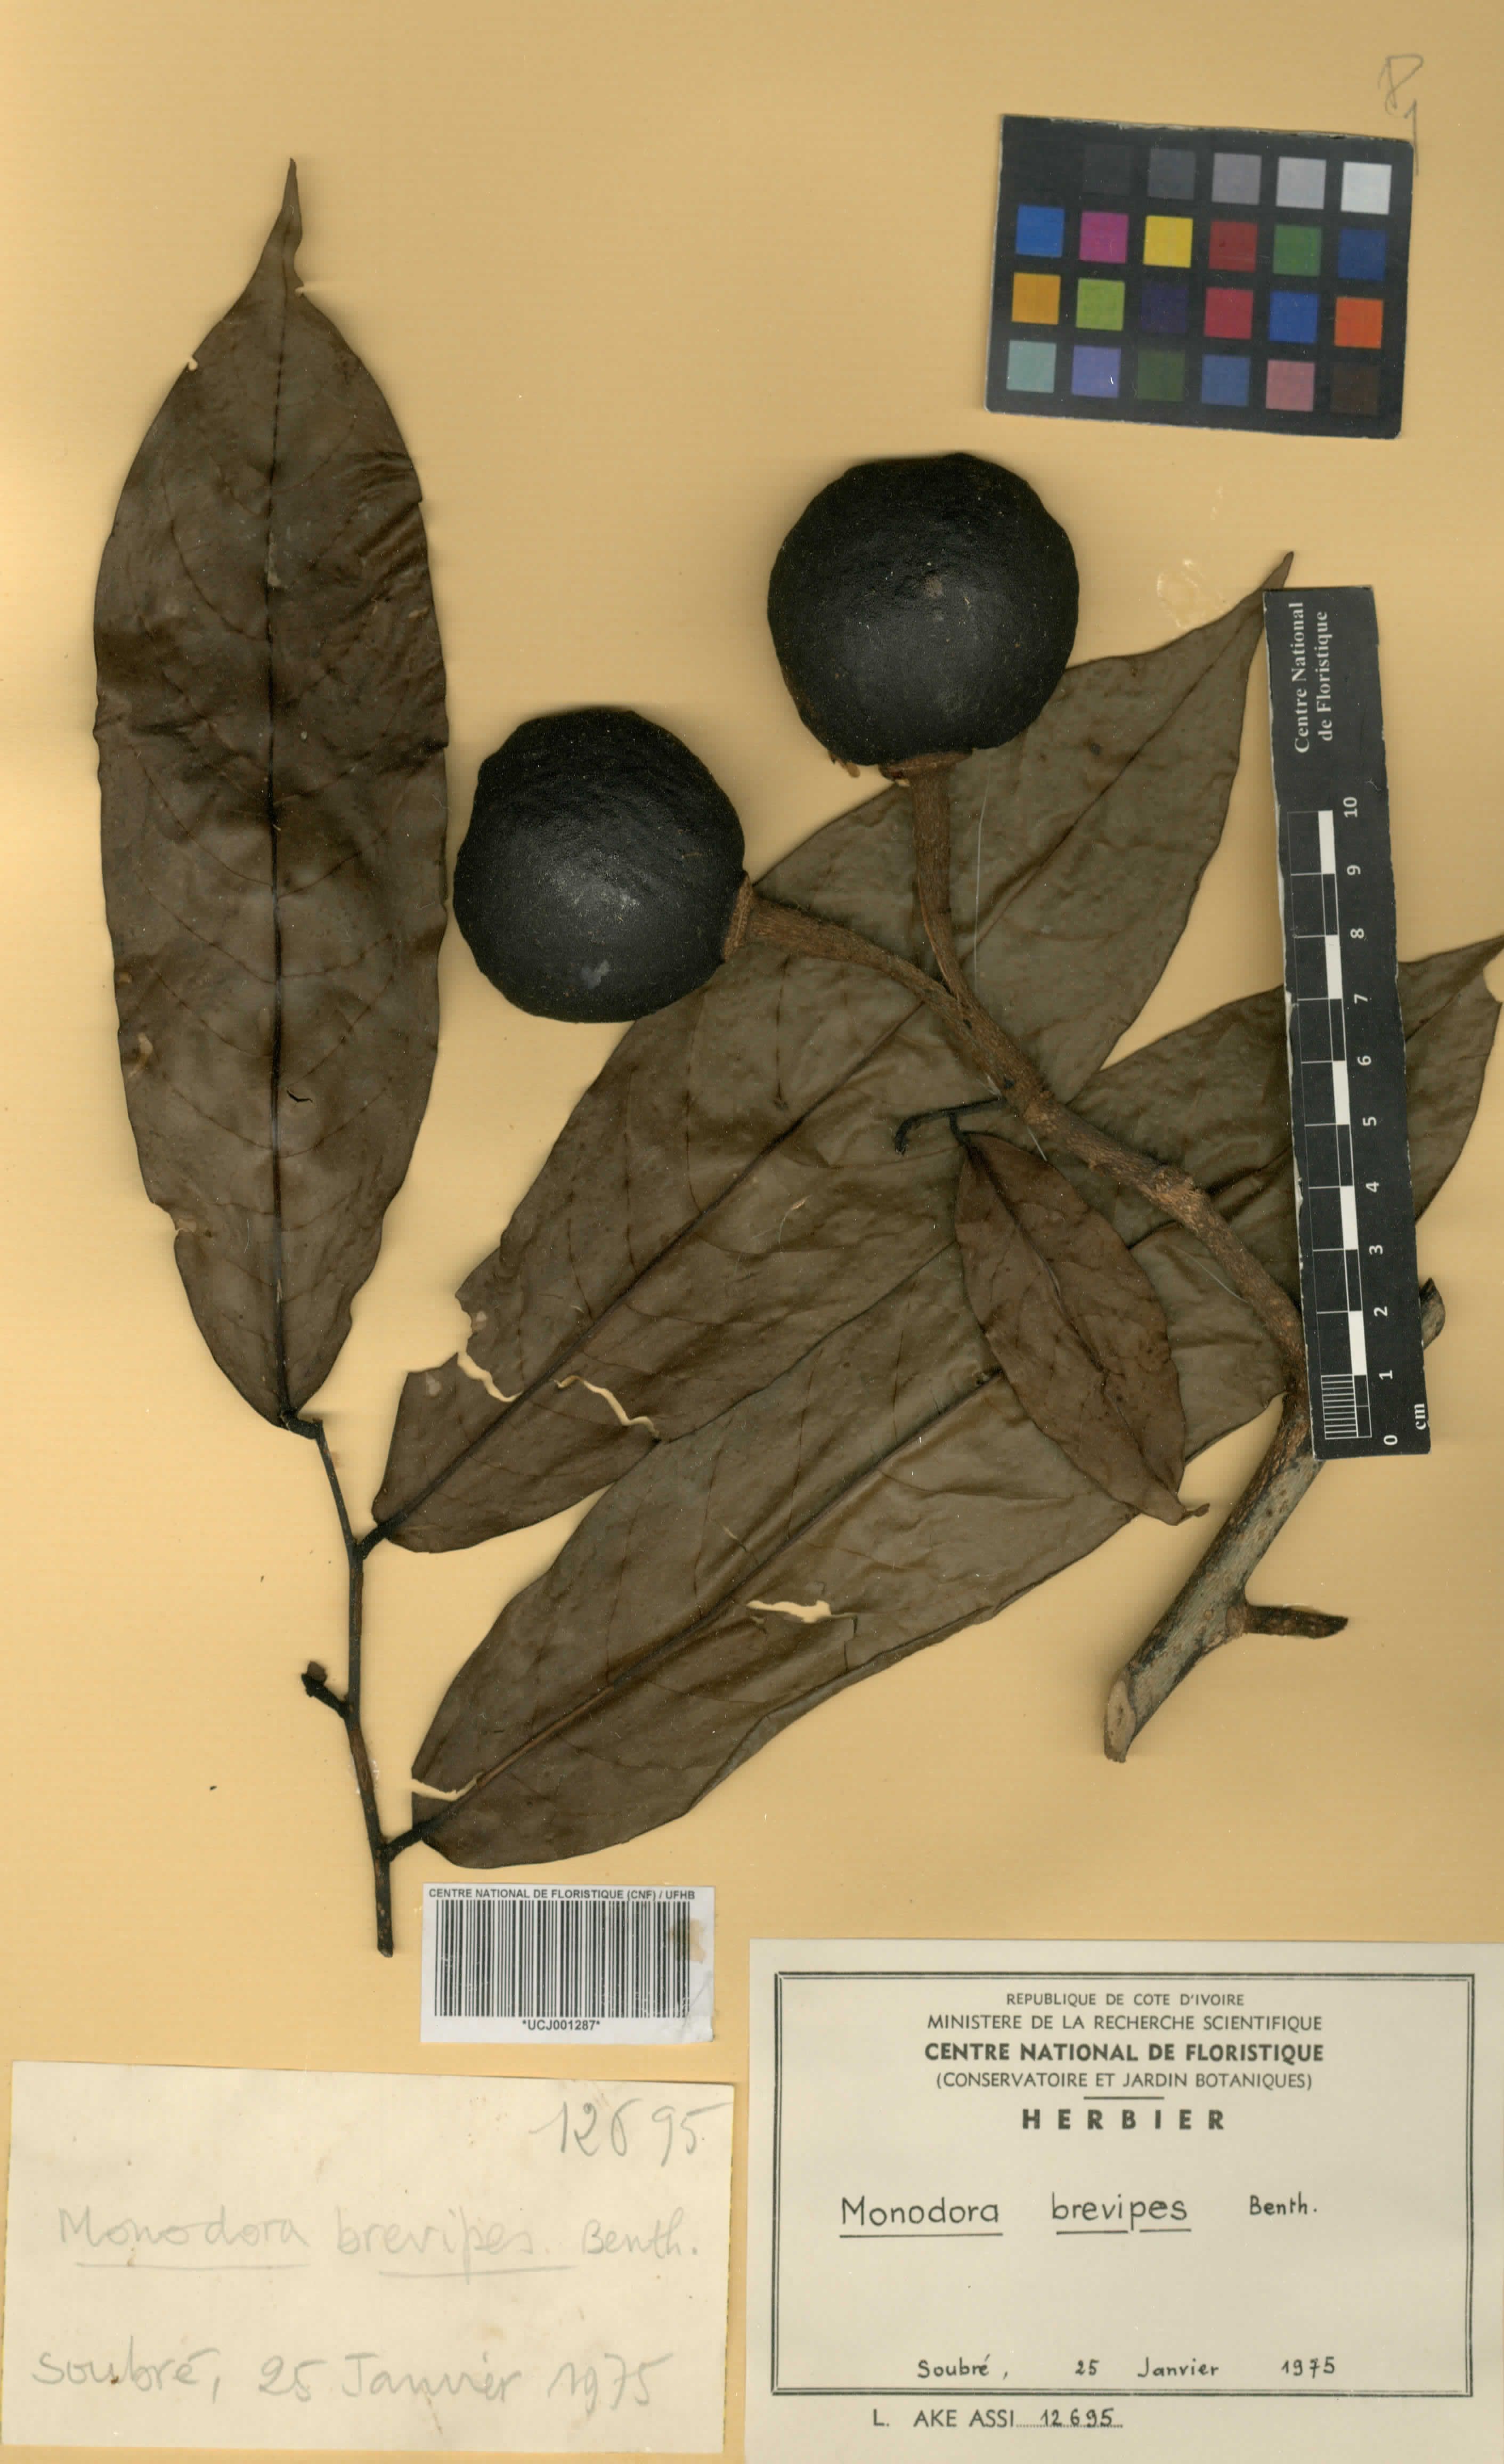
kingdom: Plantae
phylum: Tracheophyta
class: Magnoliopsida
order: Magnoliales
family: Annonaceae
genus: Monodora
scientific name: Monodora undulata
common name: Yellow-flower-nutmeg
